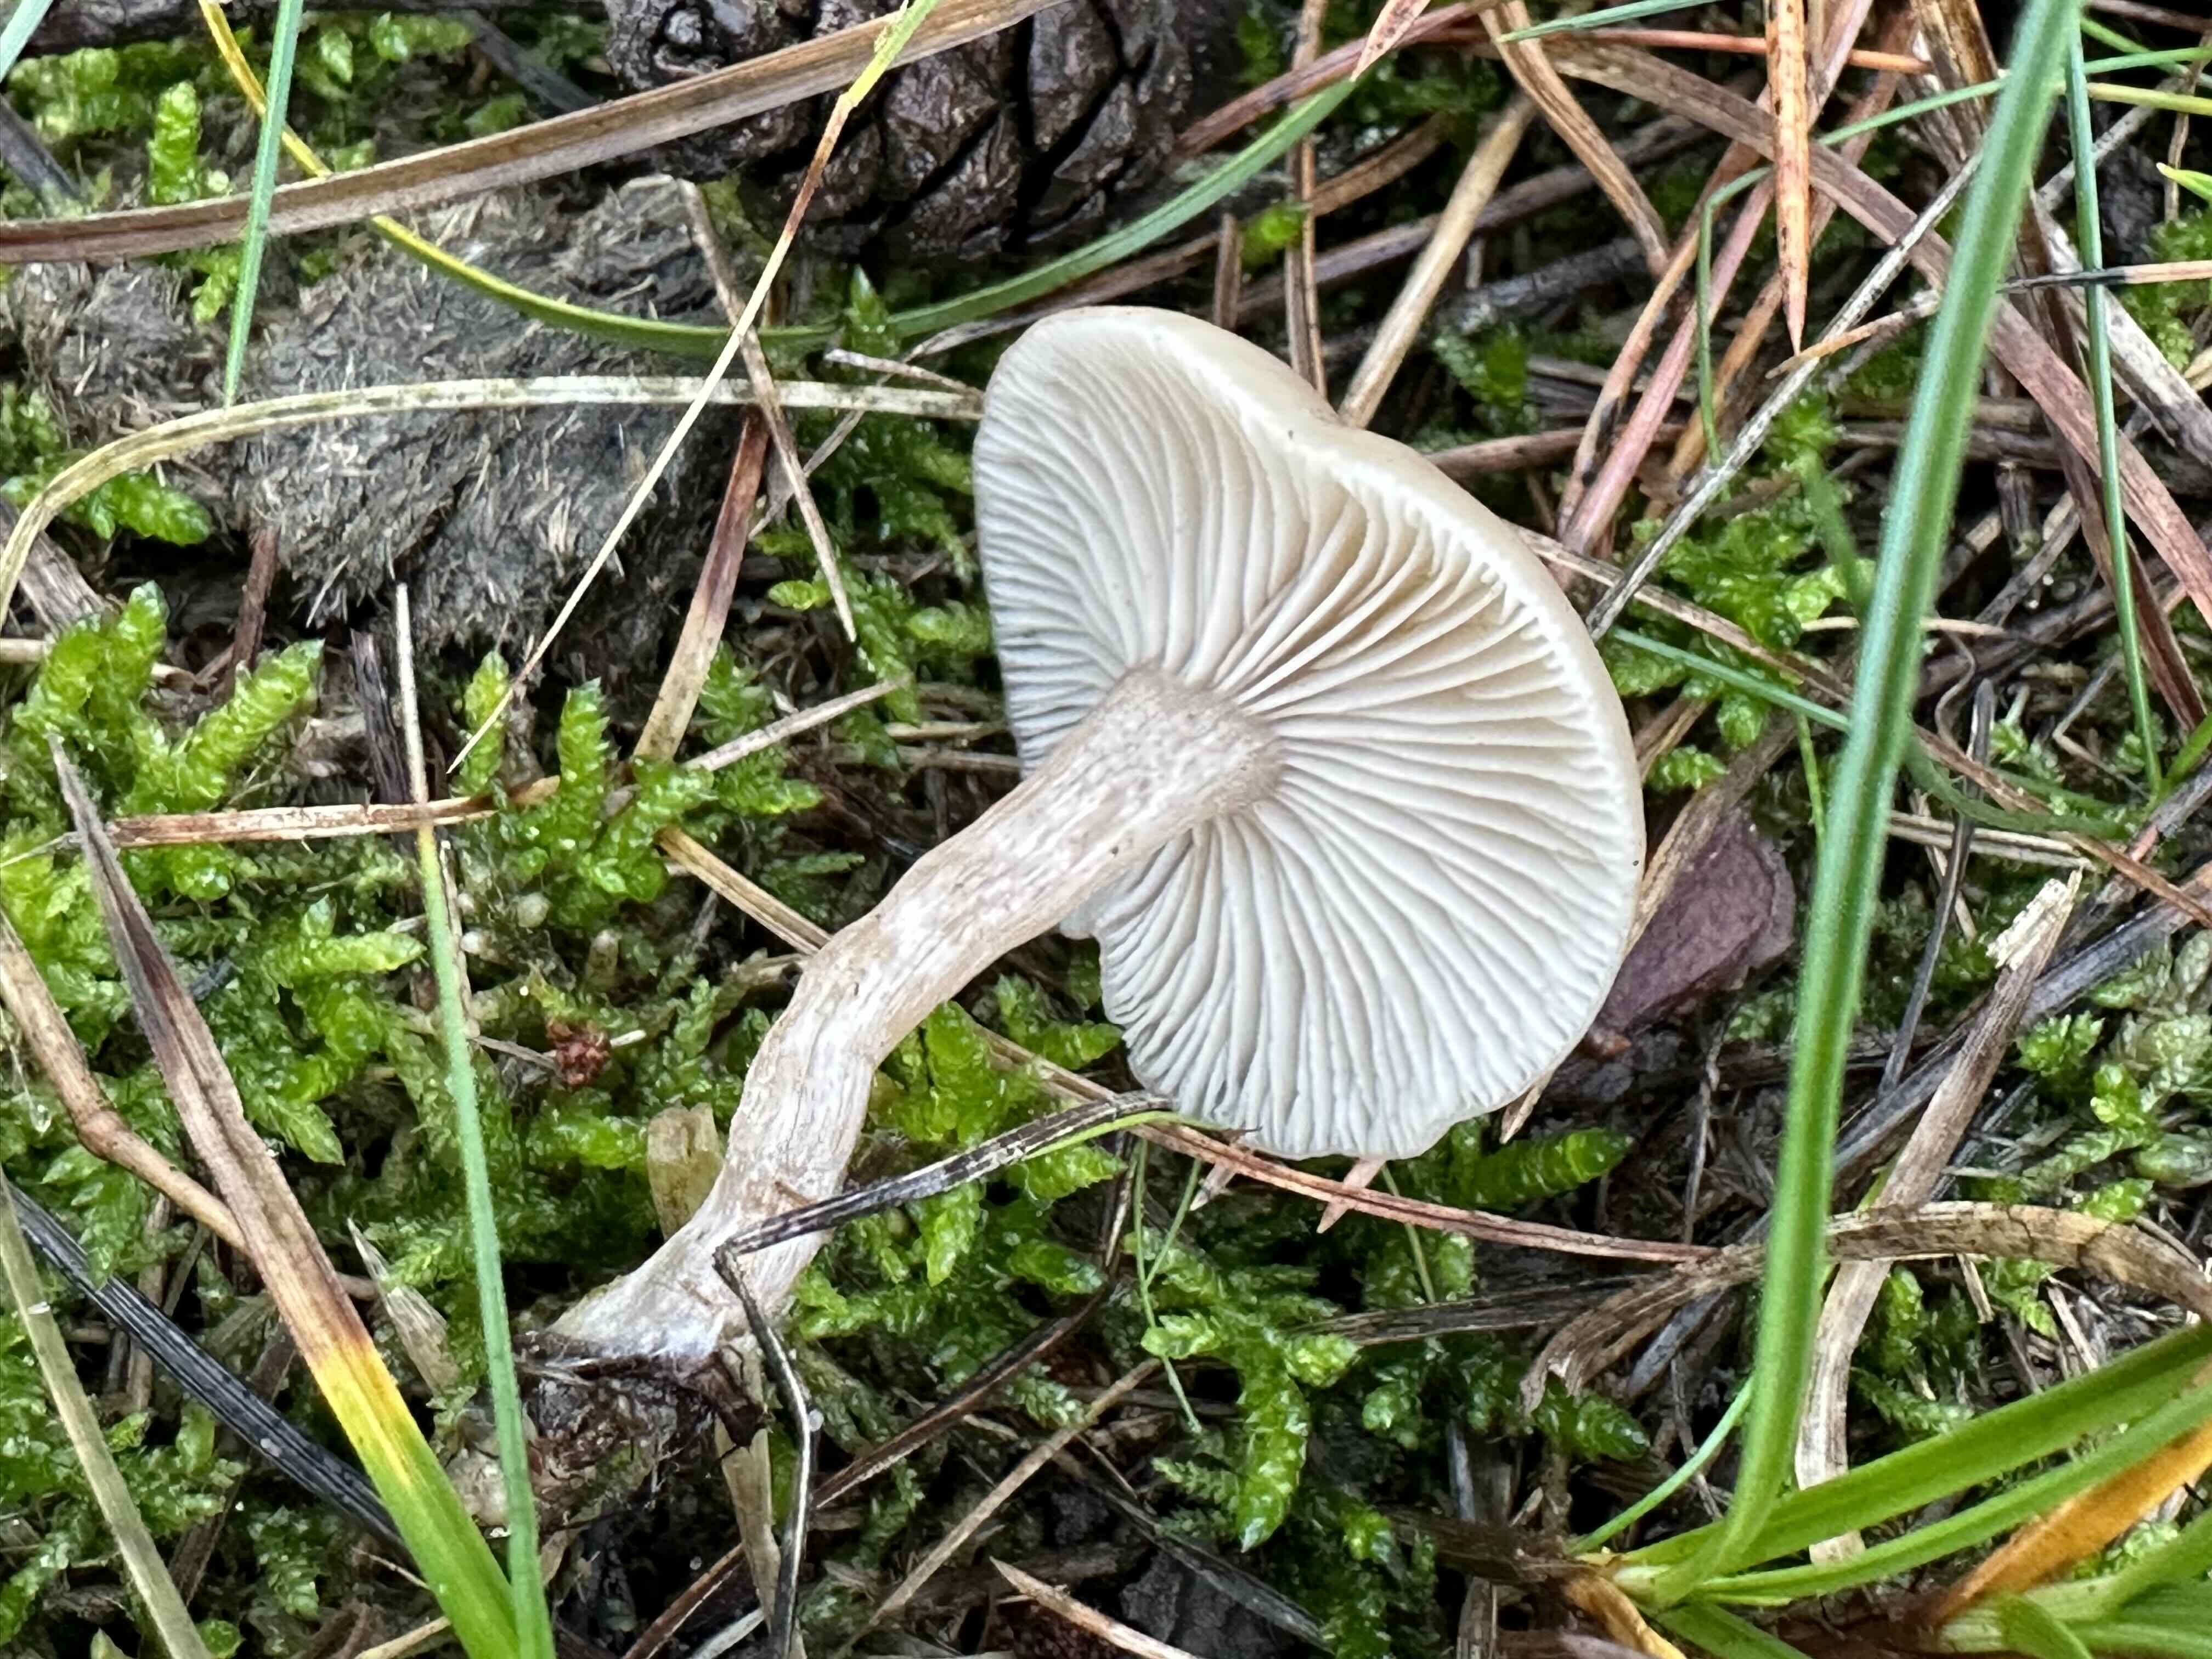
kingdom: Fungi
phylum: Basidiomycota
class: Agaricomycetes
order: Agaricales
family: Tricholomataceae
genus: Clitocybe
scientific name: Clitocybe fragrans
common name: vellugtende tragthat
